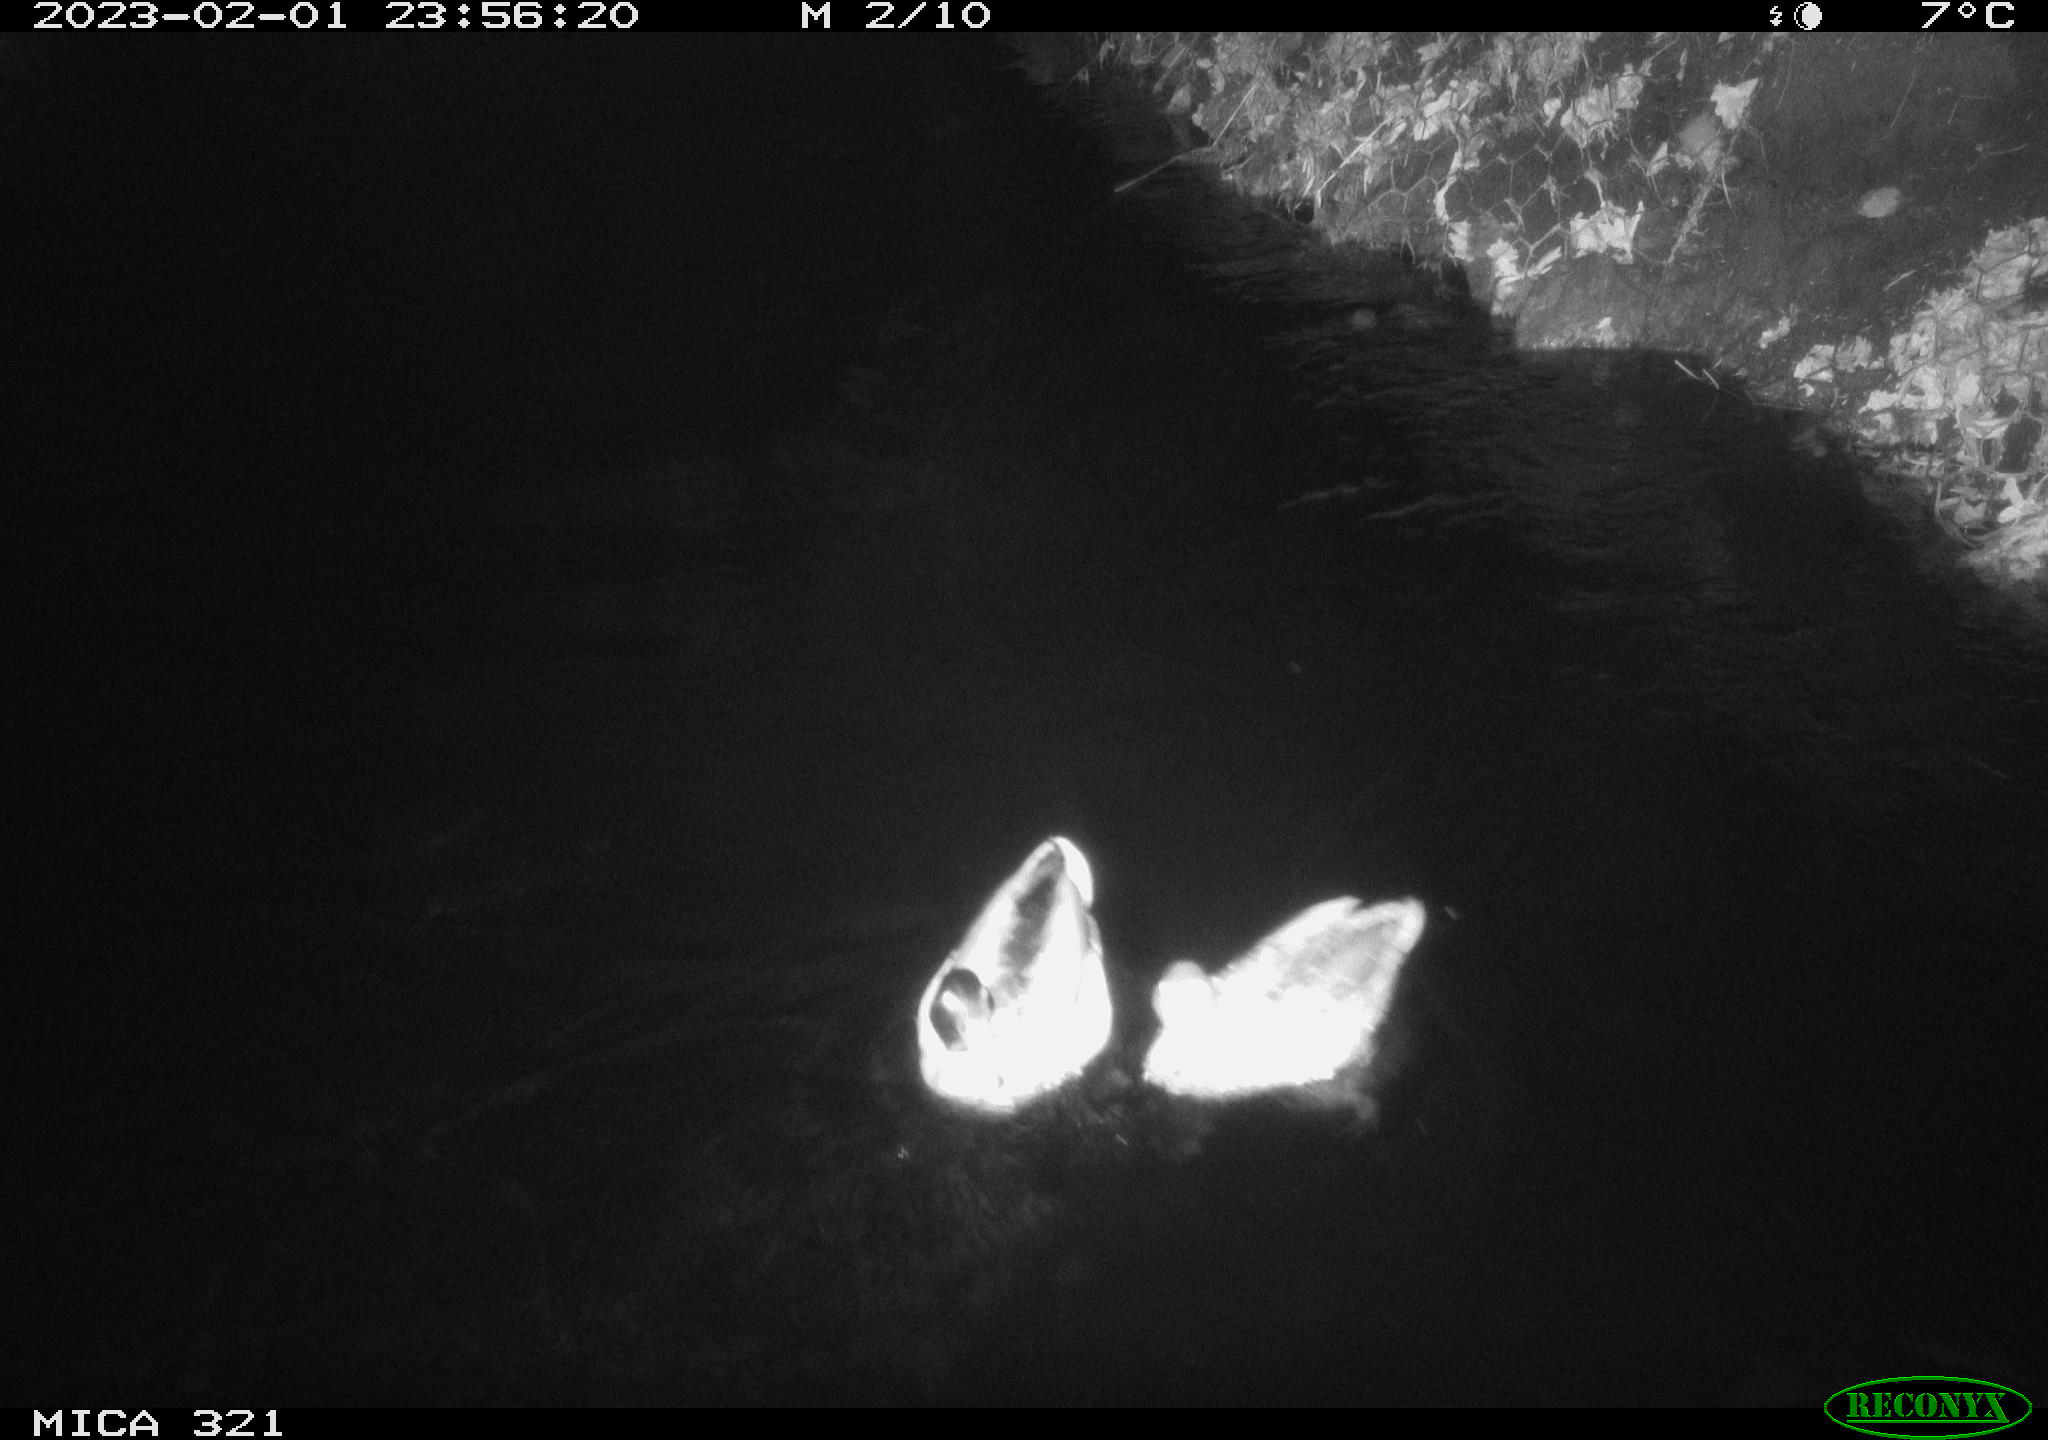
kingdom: Animalia
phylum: Chordata
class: Aves
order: Anseriformes
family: Anatidae
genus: Anas
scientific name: Anas
